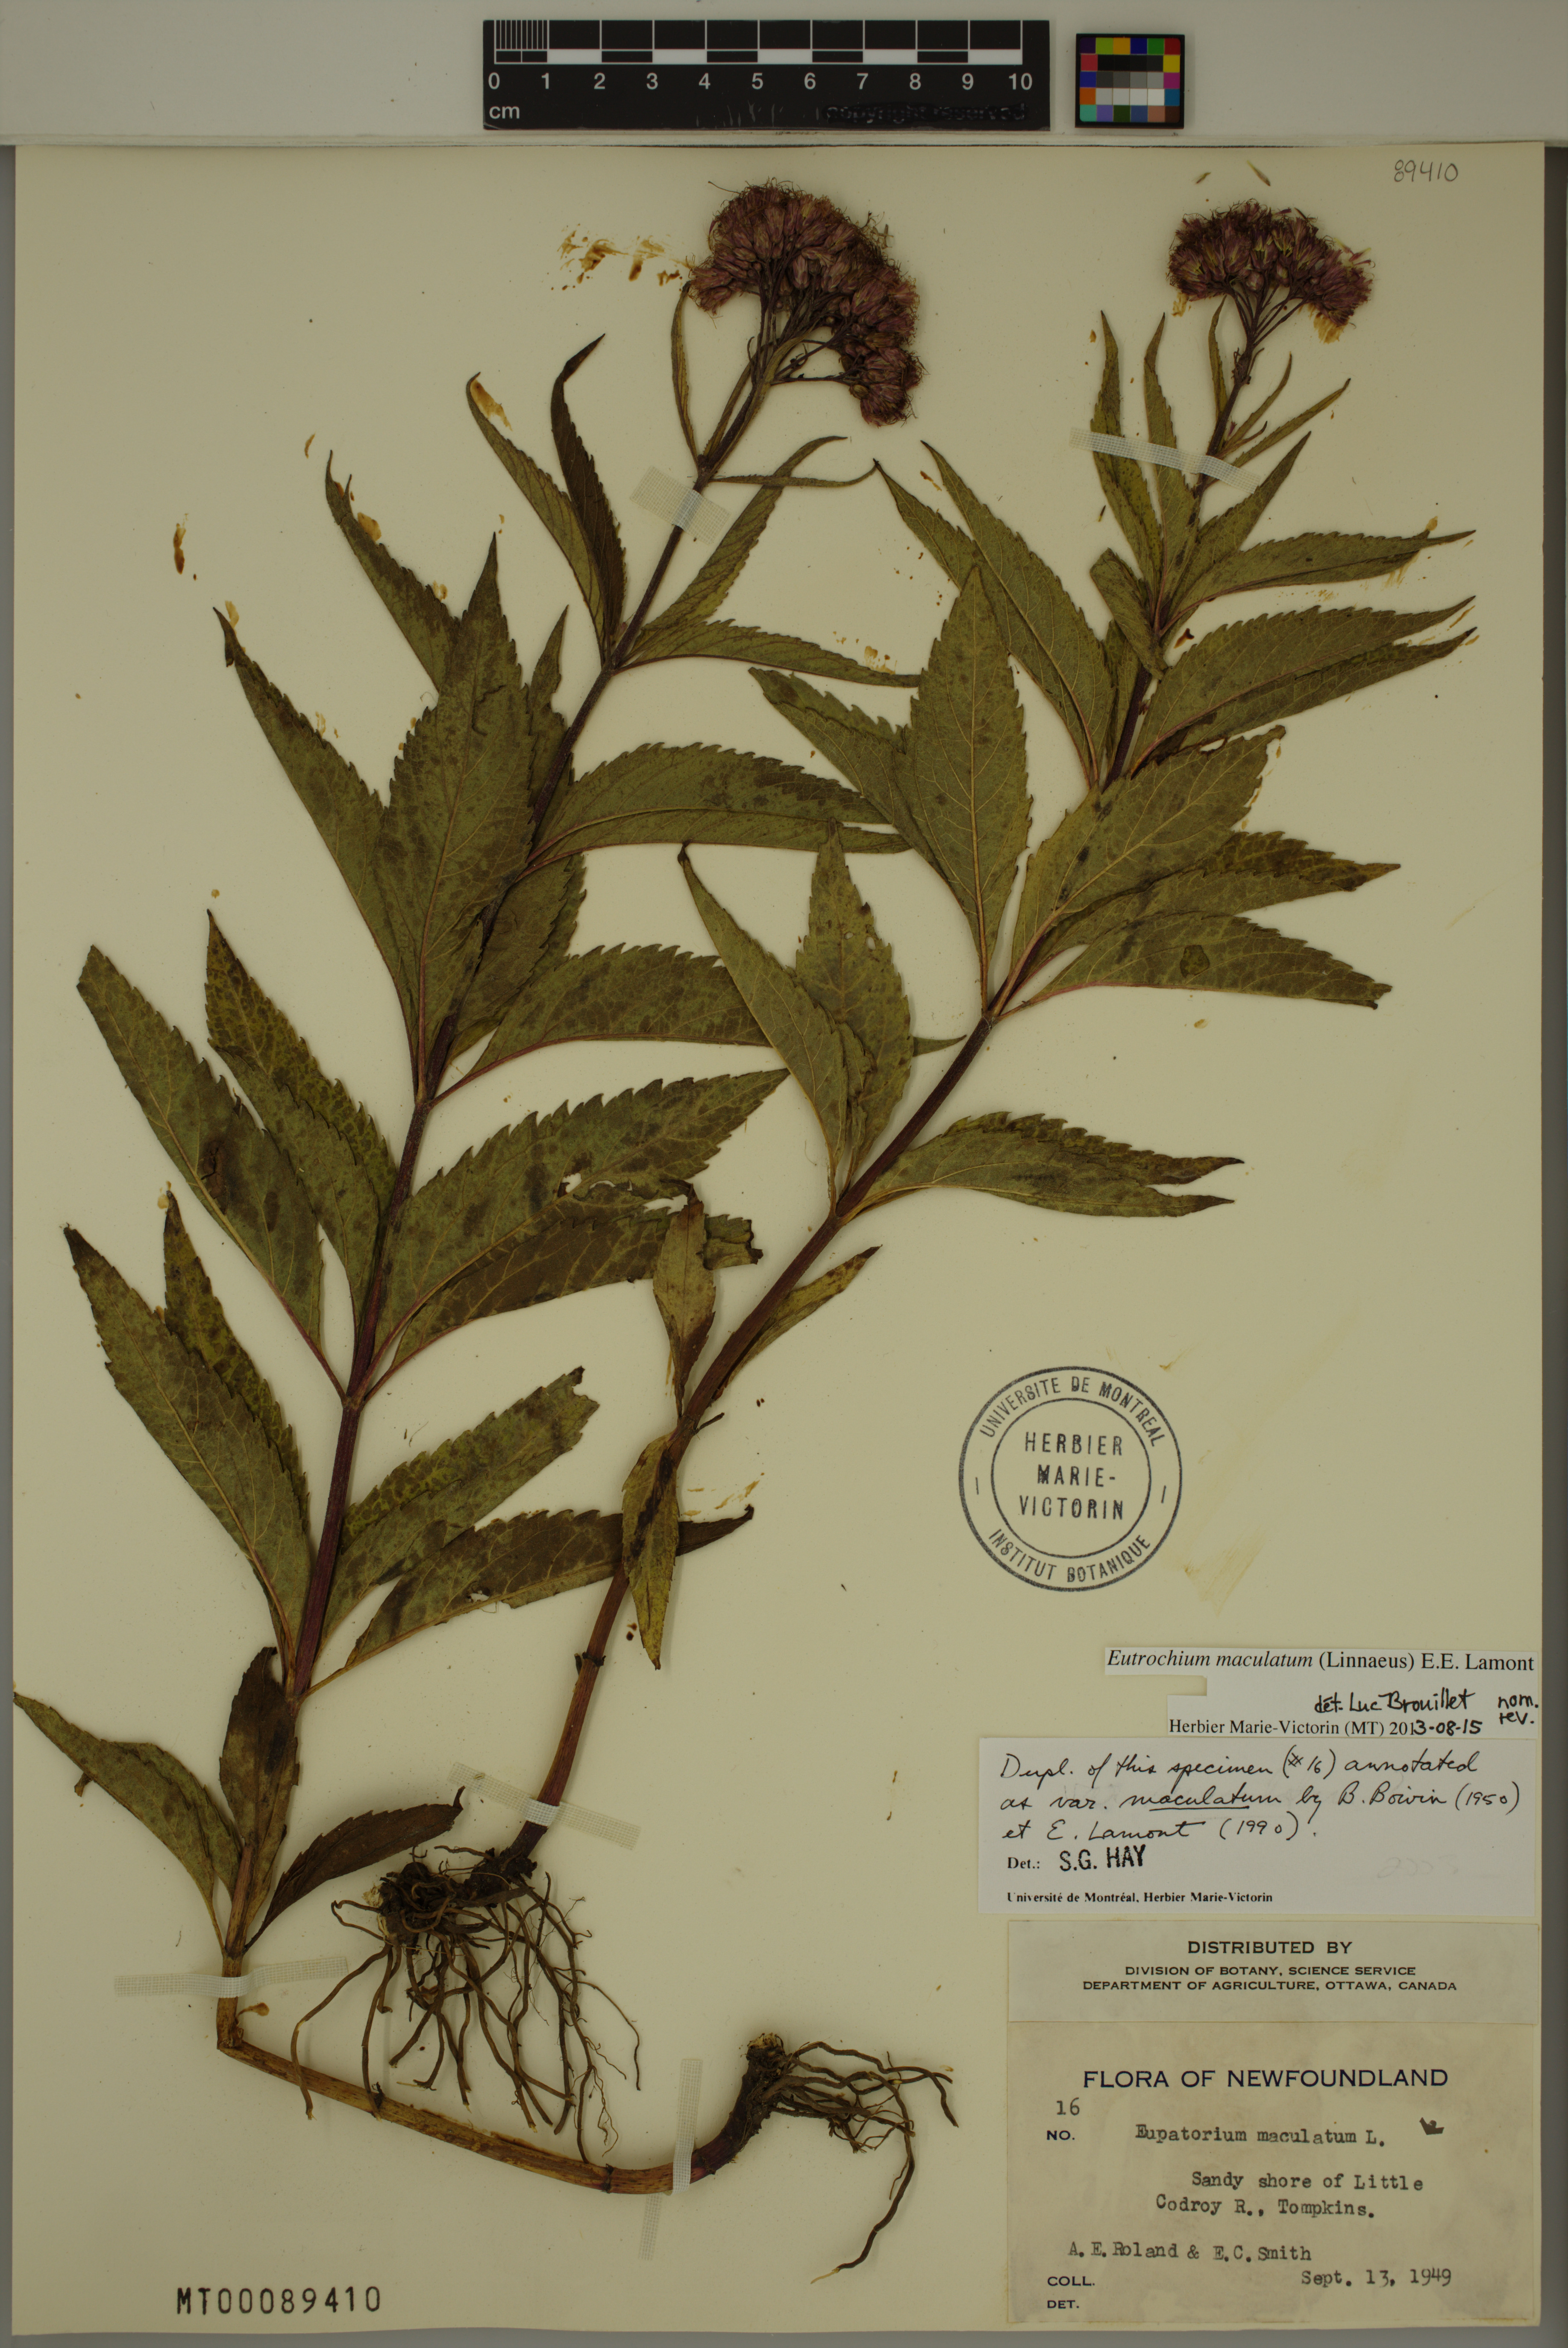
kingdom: Plantae
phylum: Tracheophyta
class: Magnoliopsida
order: Asterales
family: Asteraceae
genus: Eutrochium
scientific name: Eutrochium maculatum
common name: Spotted joe pye weed
